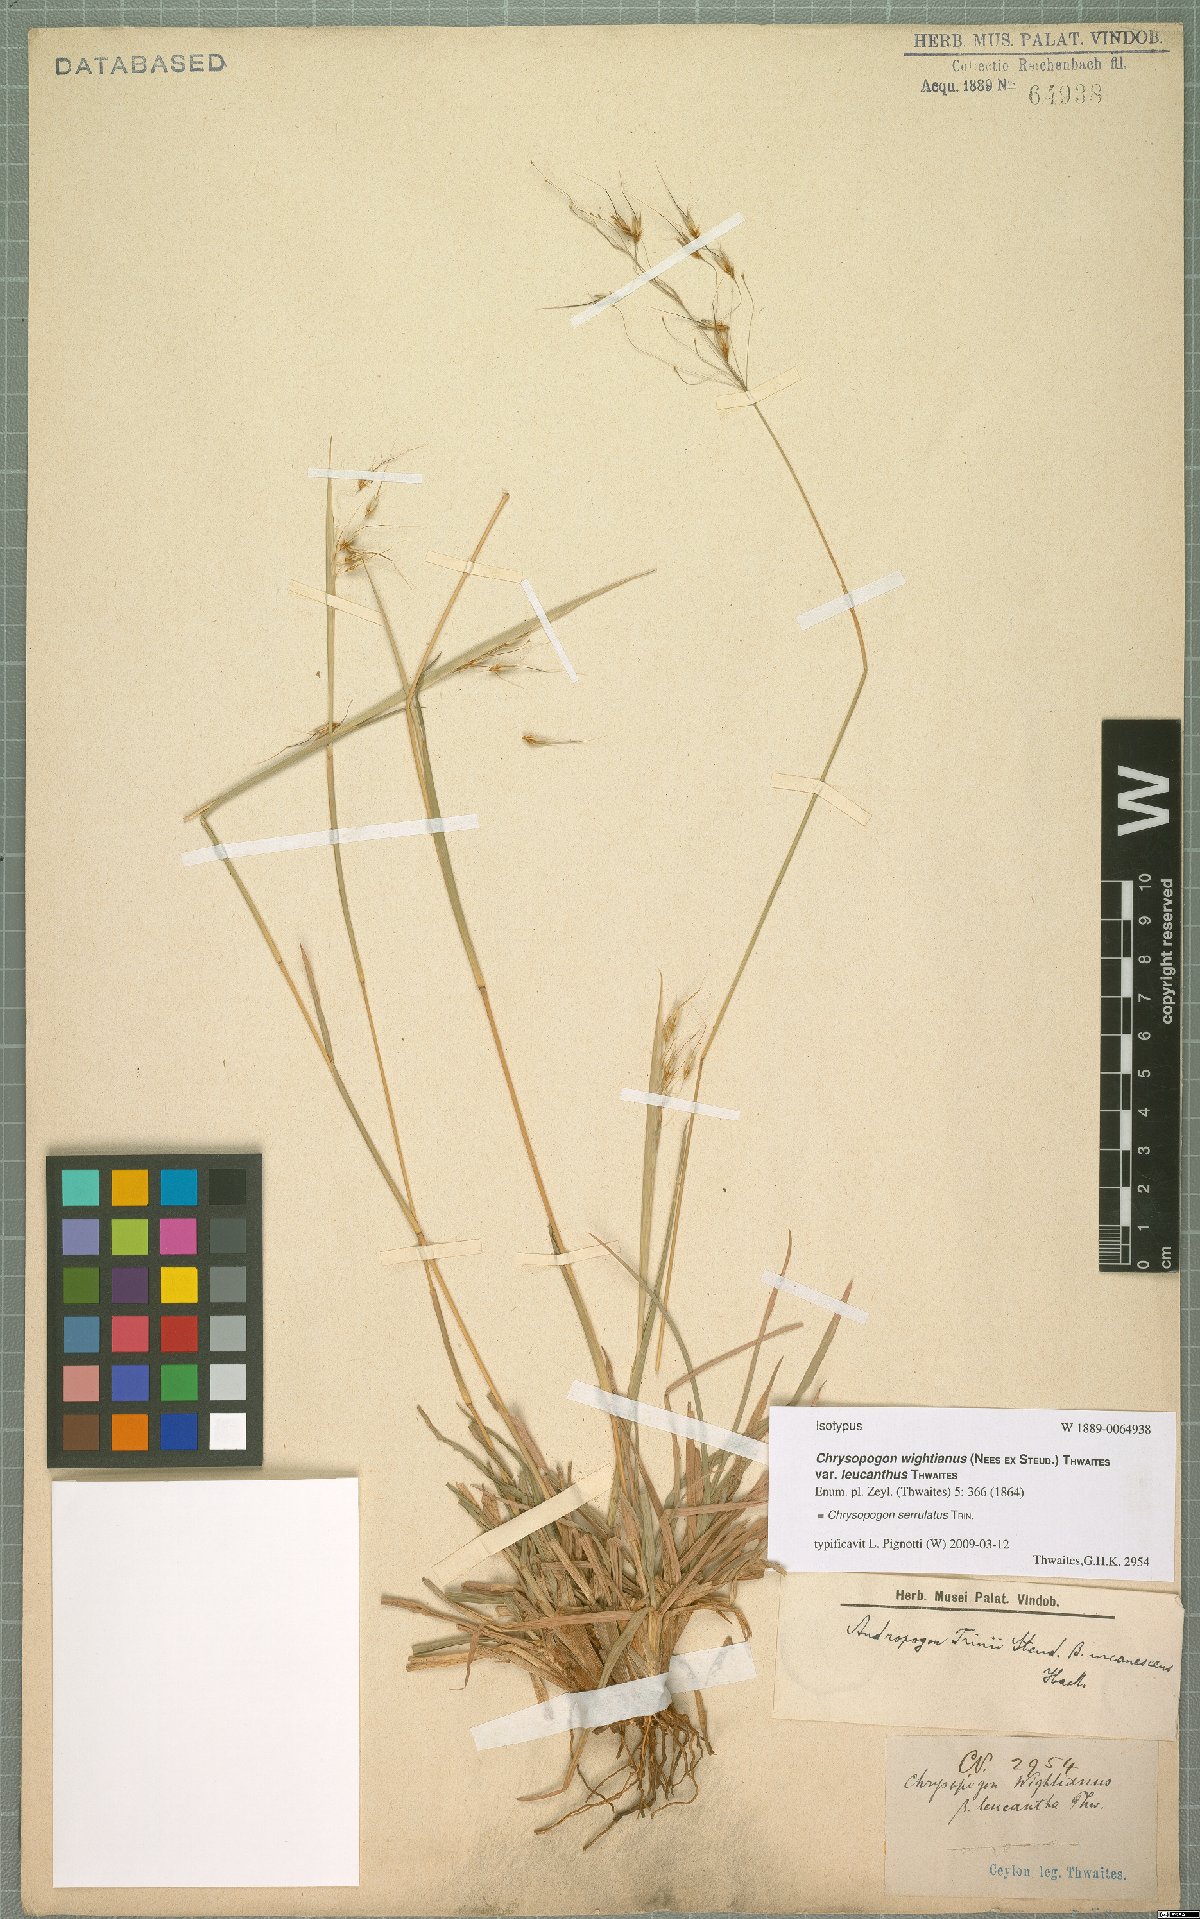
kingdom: Plantae
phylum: Tracheophyta
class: Liliopsida
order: Poales
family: Poaceae
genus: Chrysopogon
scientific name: Chrysopogon serrulatus
